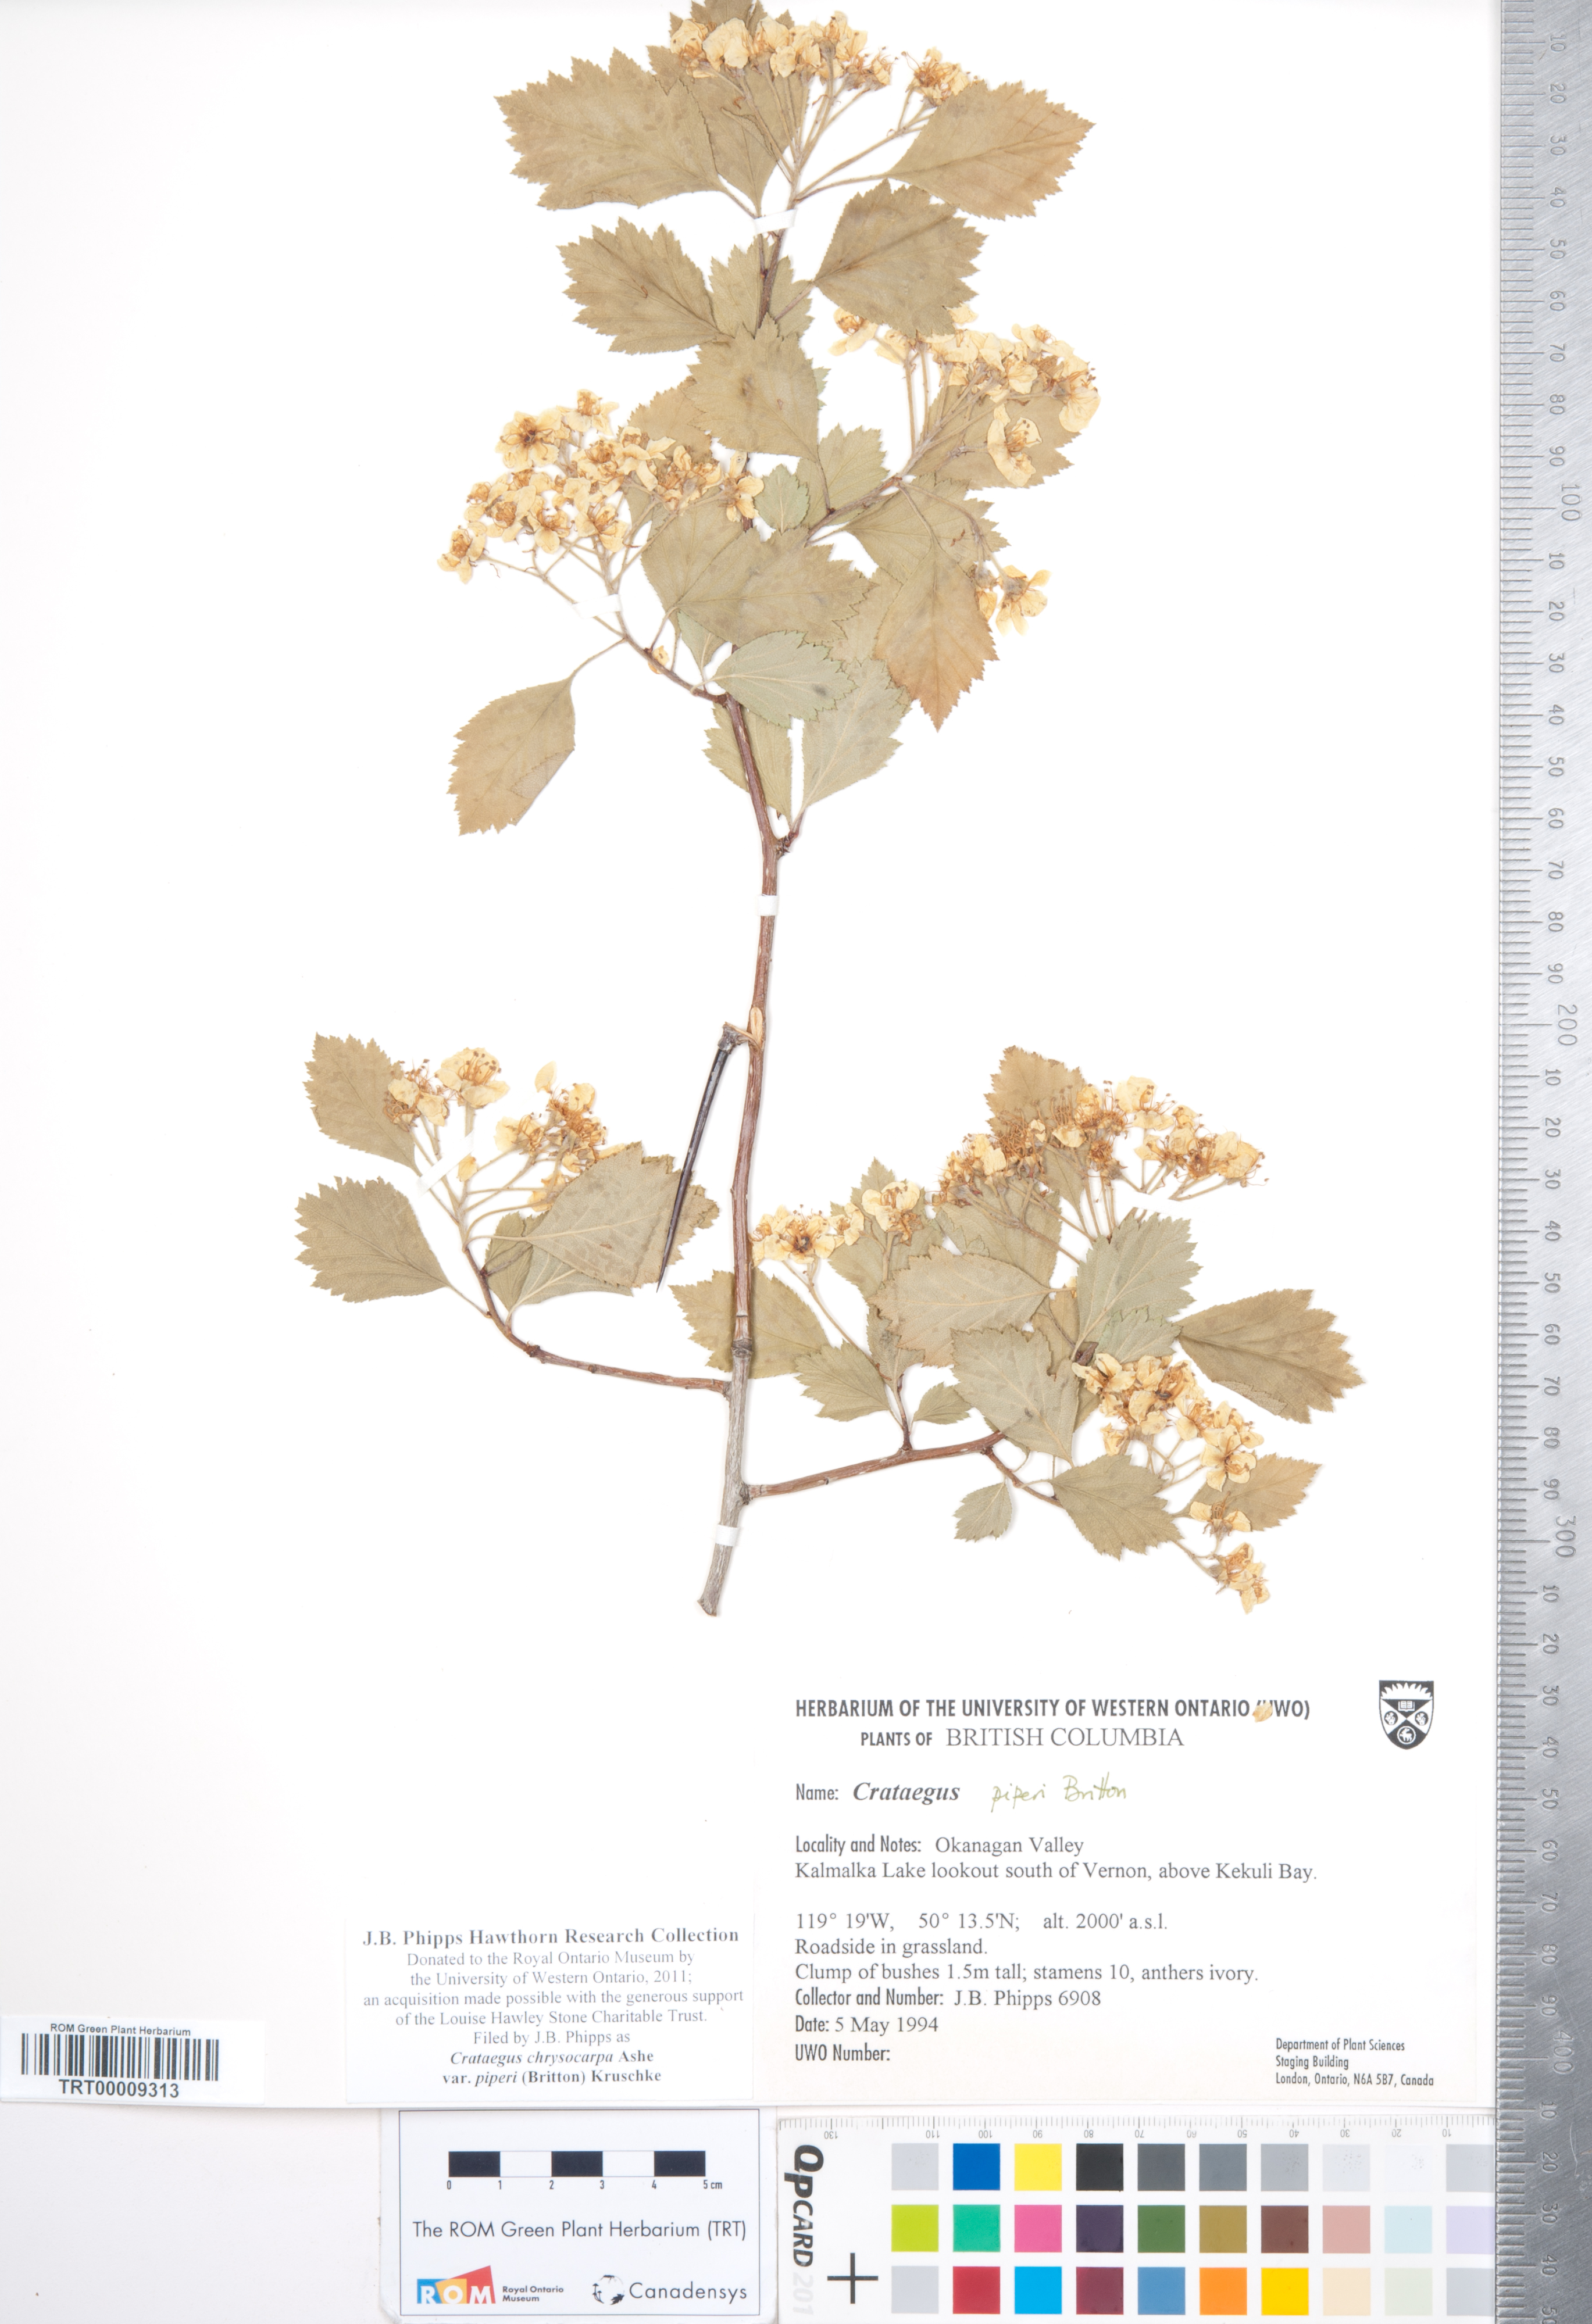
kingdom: Plantae
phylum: Tracheophyta
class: Magnoliopsida
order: Rosales
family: Rosaceae
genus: Crataegus
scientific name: Crataegus piperi
